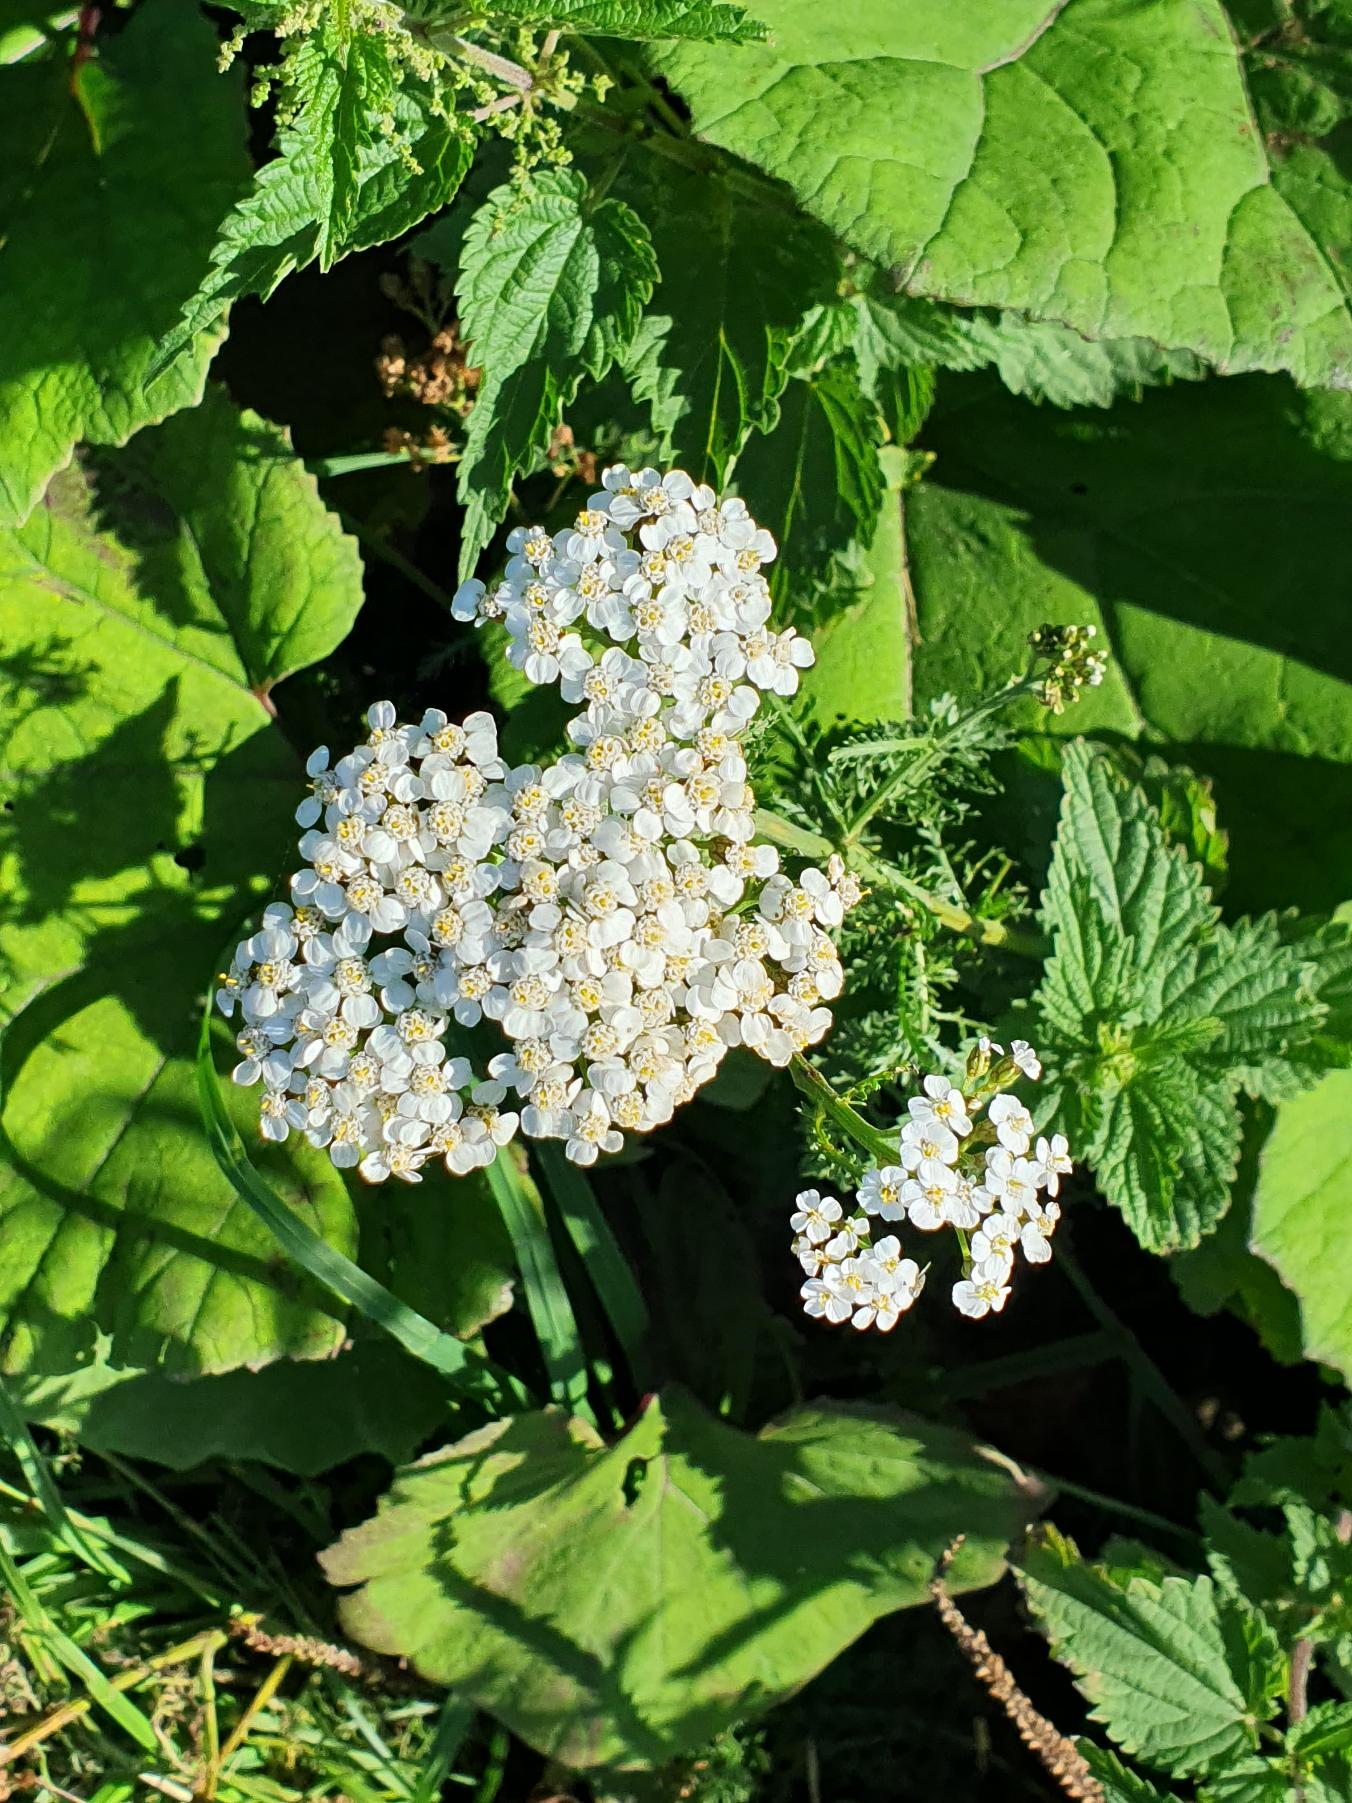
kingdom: Plantae
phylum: Tracheophyta
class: Magnoliopsida
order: Asterales
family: Asteraceae
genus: Achillea
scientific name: Achillea millefolium
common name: Almindelig røllike
